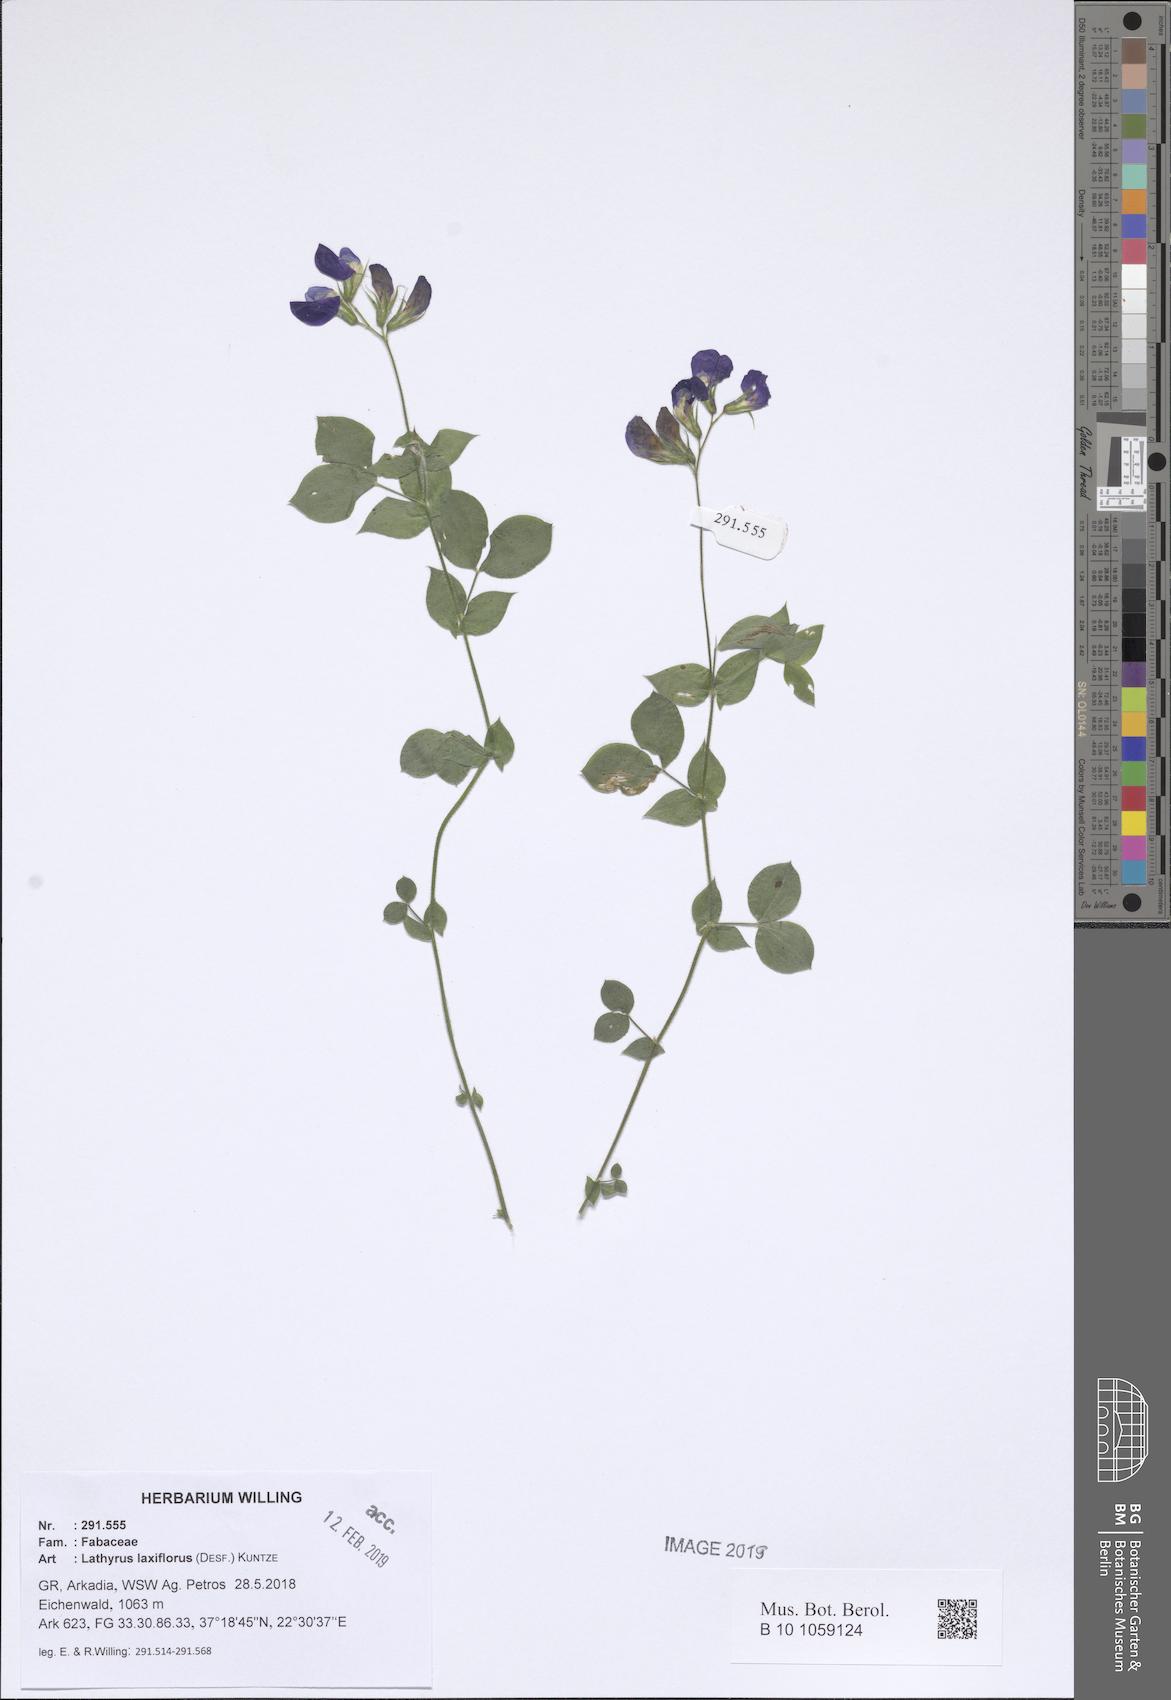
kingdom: Plantae
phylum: Tracheophyta
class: Magnoliopsida
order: Fabales
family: Fabaceae
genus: Lathyrus
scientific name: Lathyrus laxiflorus
